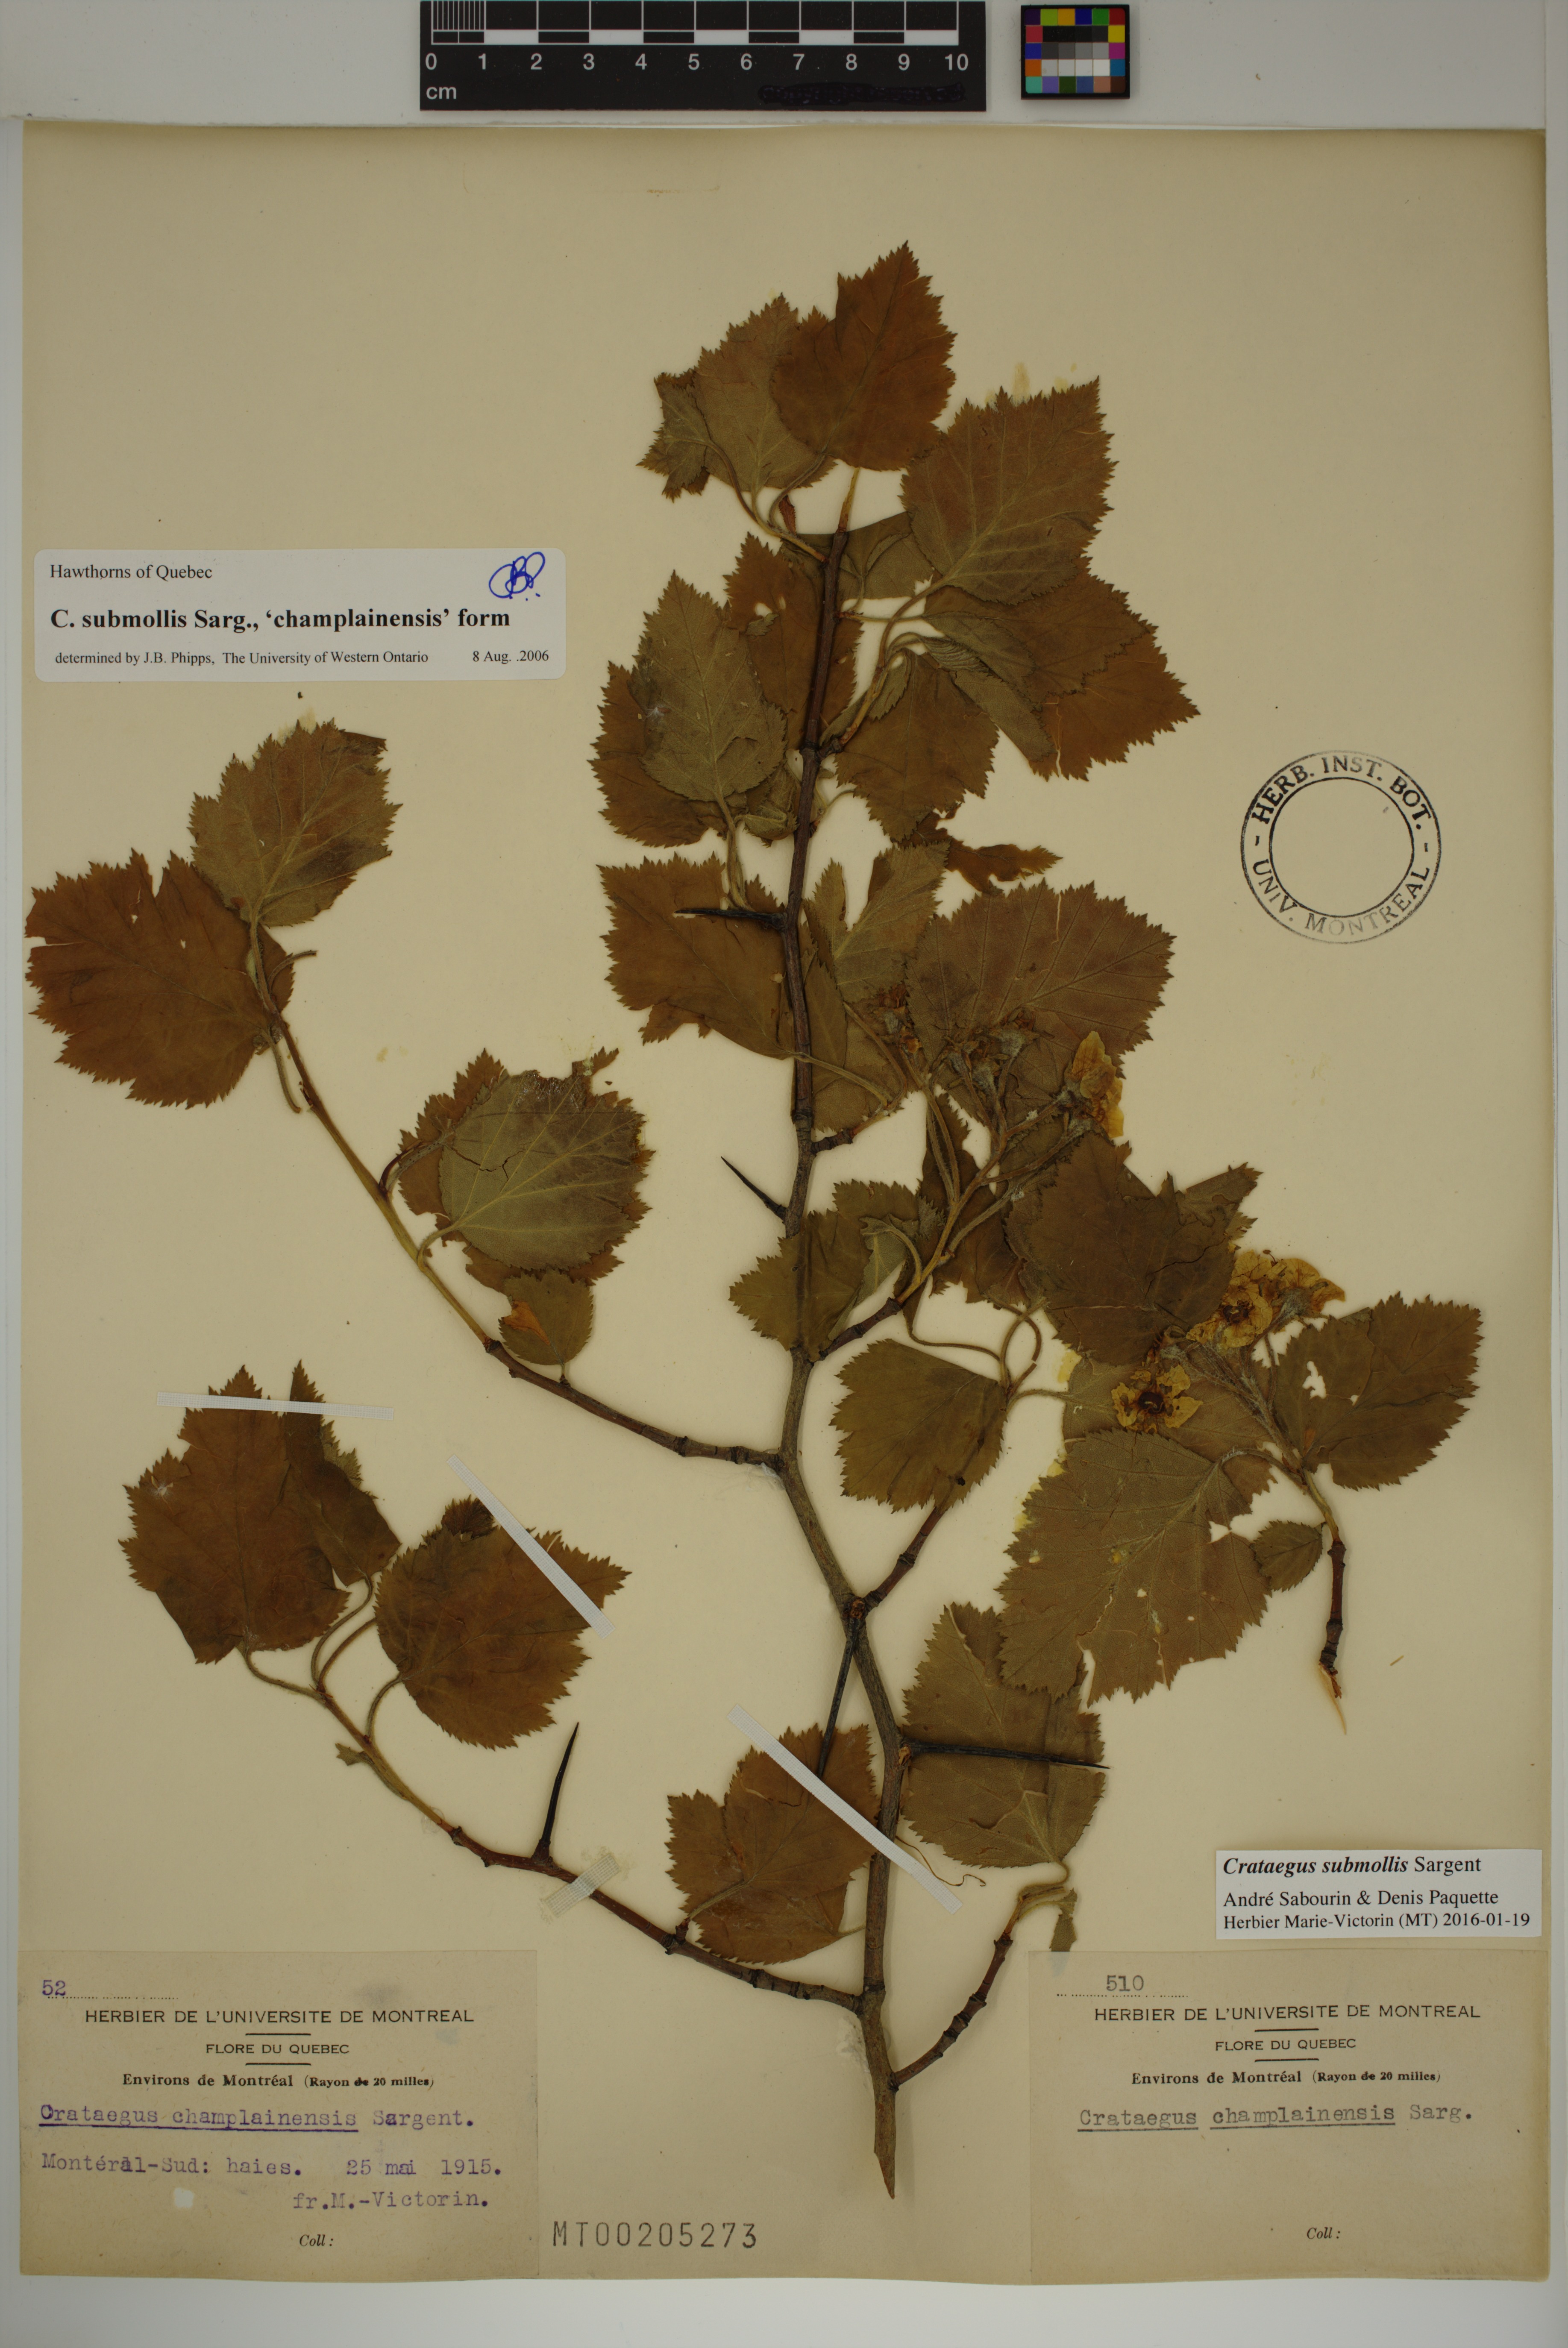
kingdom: Plantae
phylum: Tracheophyta
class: Magnoliopsida
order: Rosales
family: Rosaceae
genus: Crataegus
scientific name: Crataegus submollis
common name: Hairy cockspurthorn
